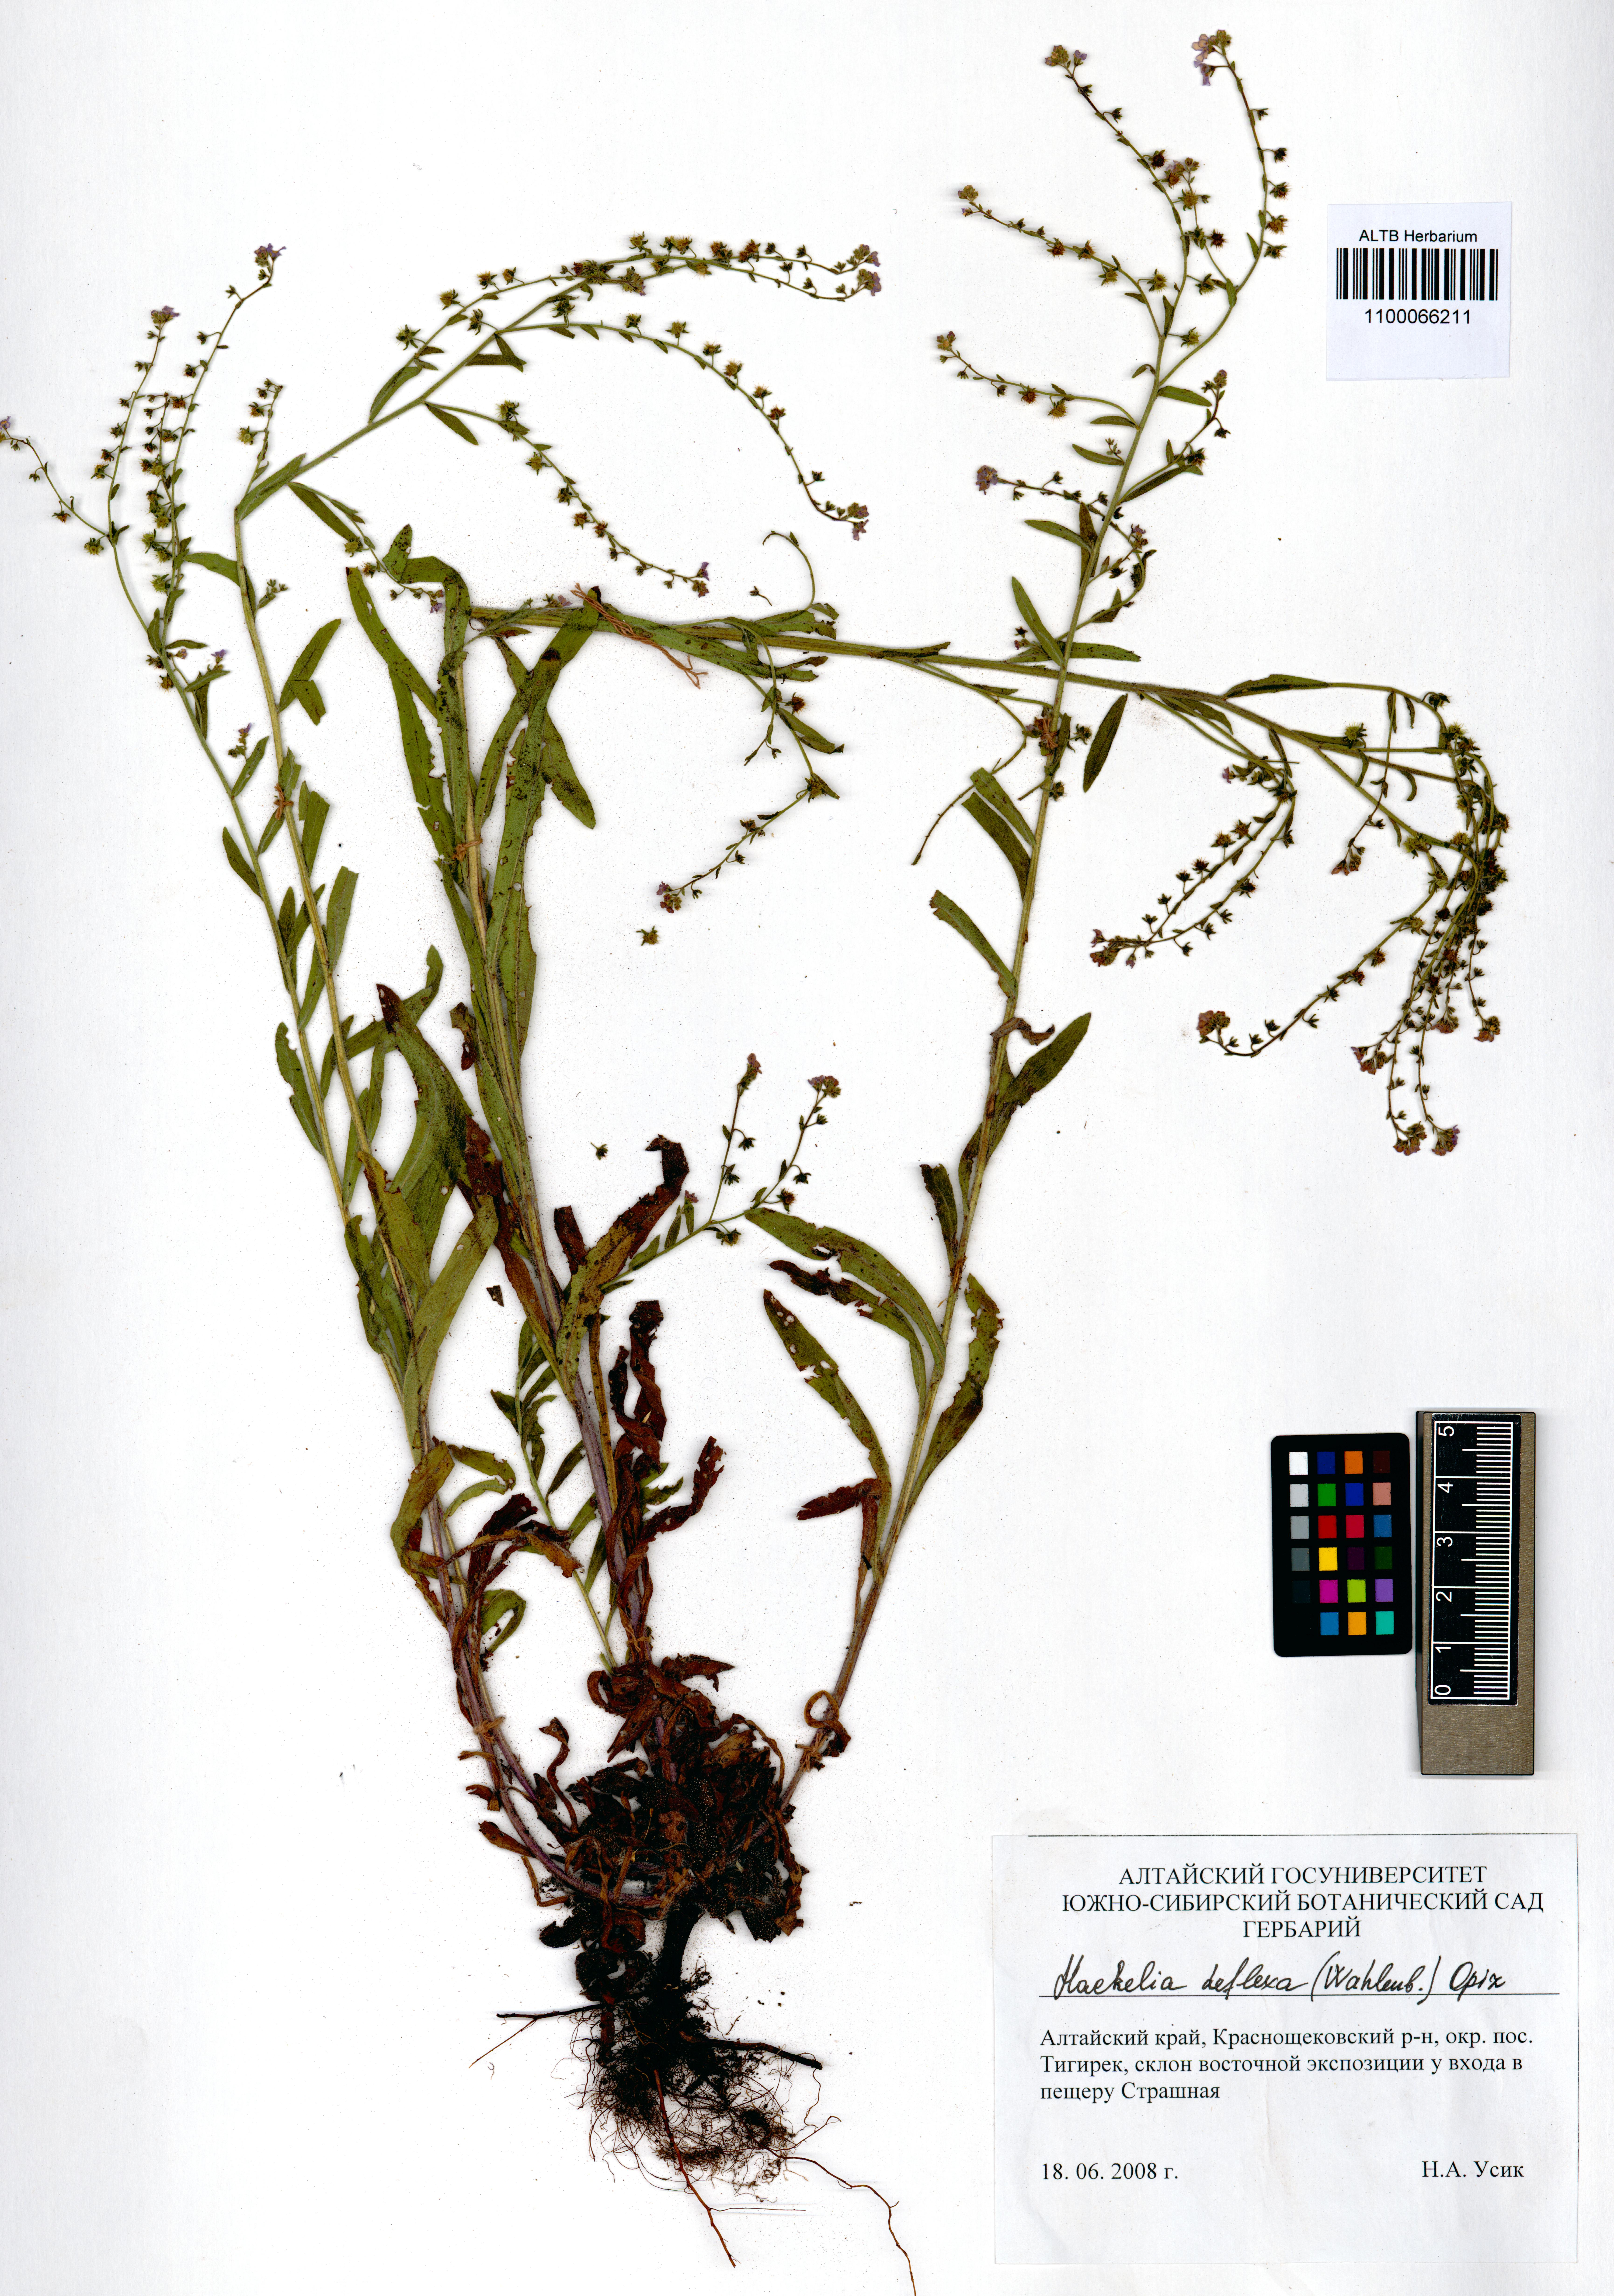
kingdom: Plantae
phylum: Tracheophyta
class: Magnoliopsida
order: Boraginales
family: Boraginaceae
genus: Hackelia
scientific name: Hackelia deflexa
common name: Nodding stickseed
